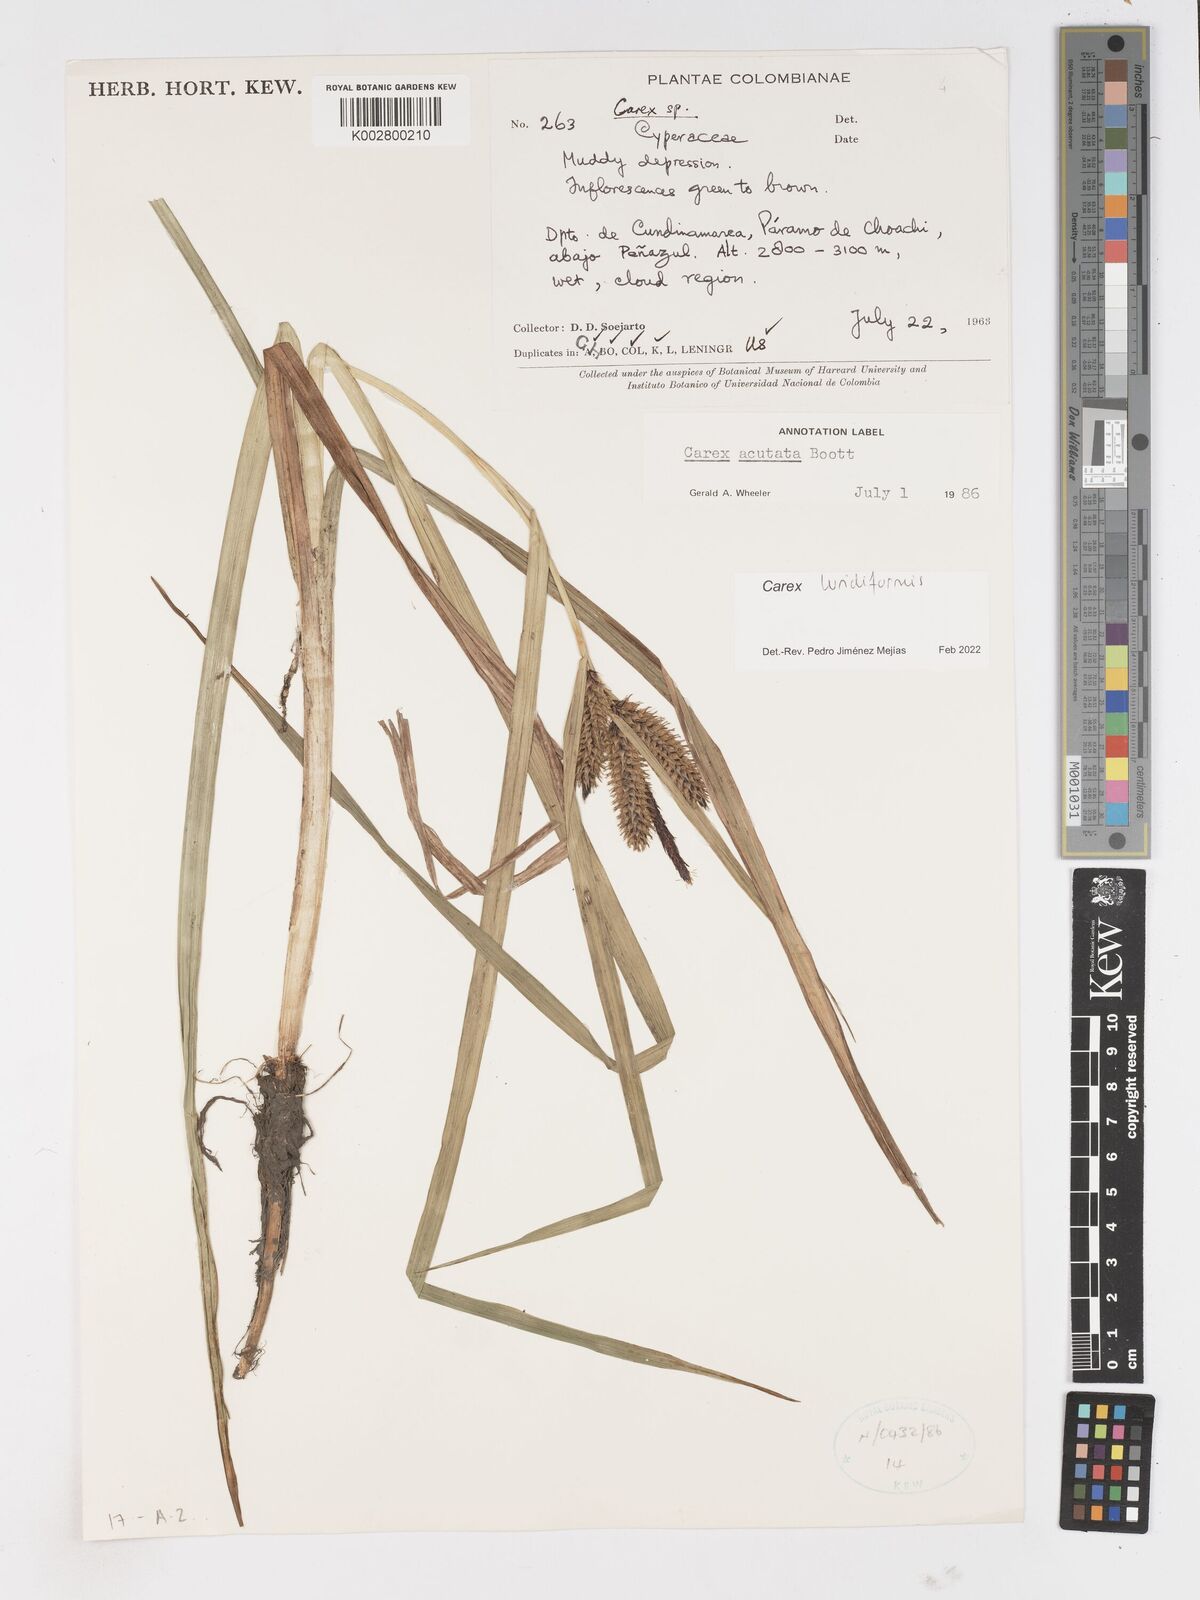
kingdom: Plantae
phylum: Tracheophyta
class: Liliopsida
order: Poales
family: Cyperaceae
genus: Carex
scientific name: Carex luridiformis
